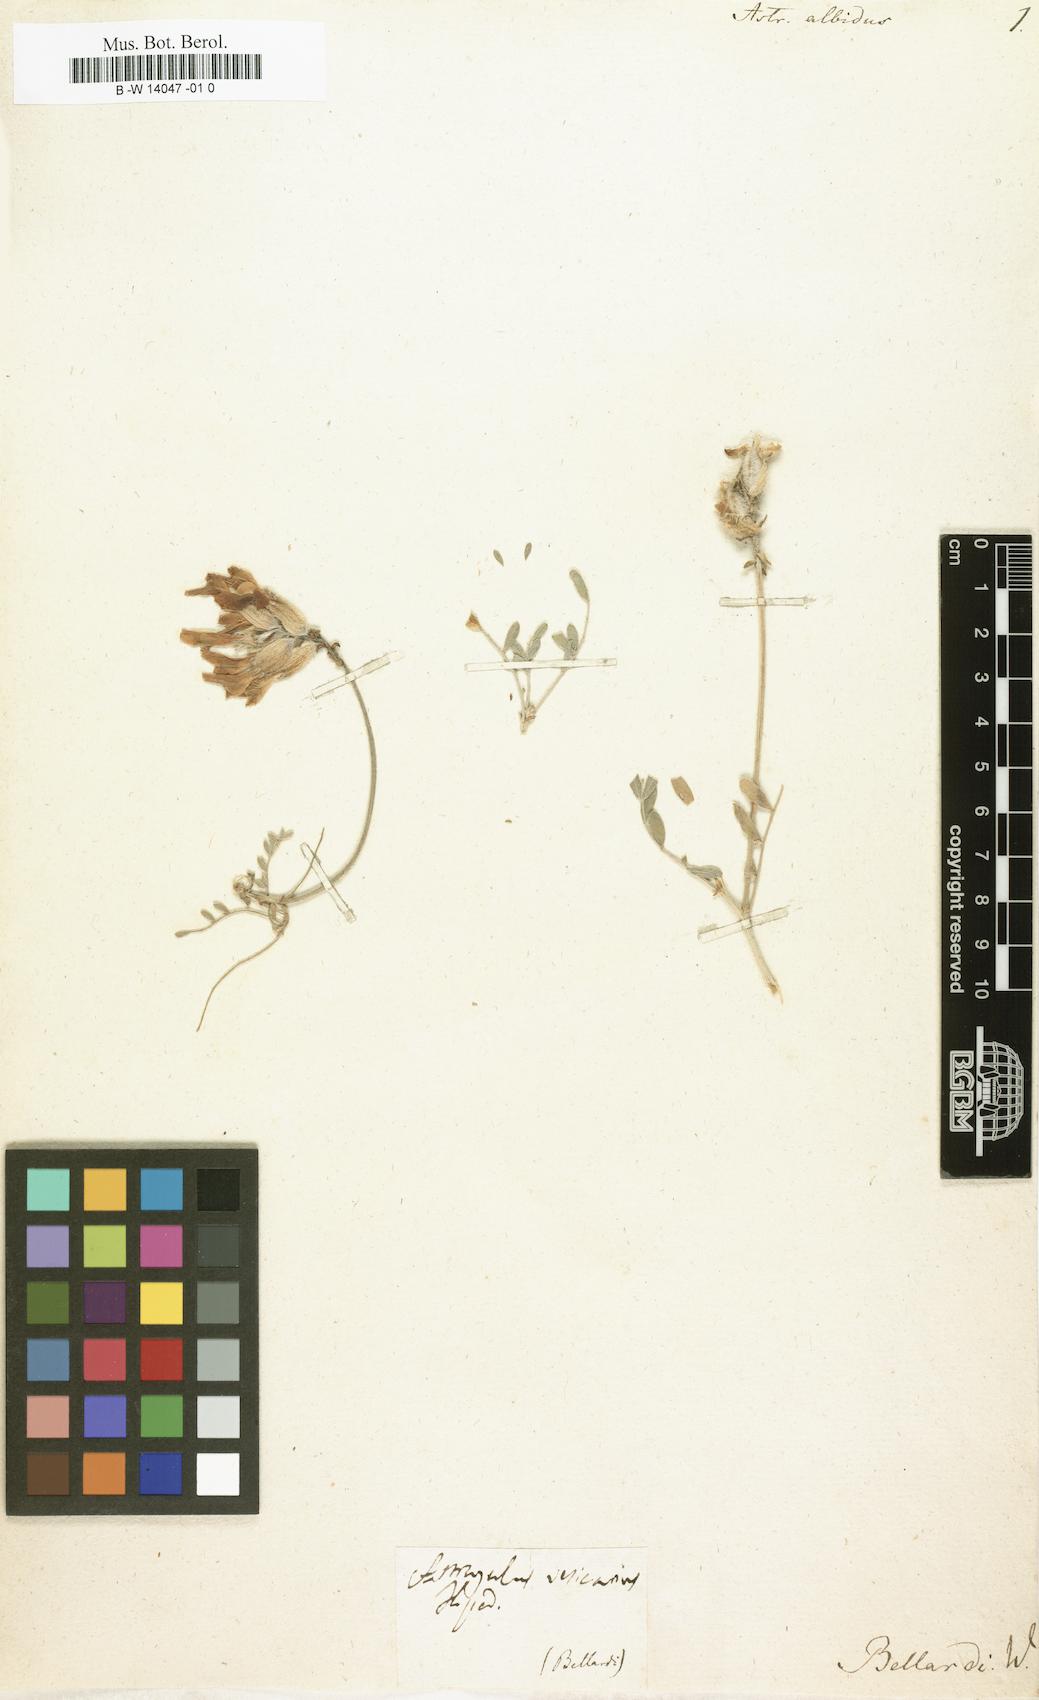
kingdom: Plantae
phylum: Tracheophyta
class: Magnoliopsida
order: Fabales
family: Fabaceae
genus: Astragalus
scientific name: Astragalus vesicarius
